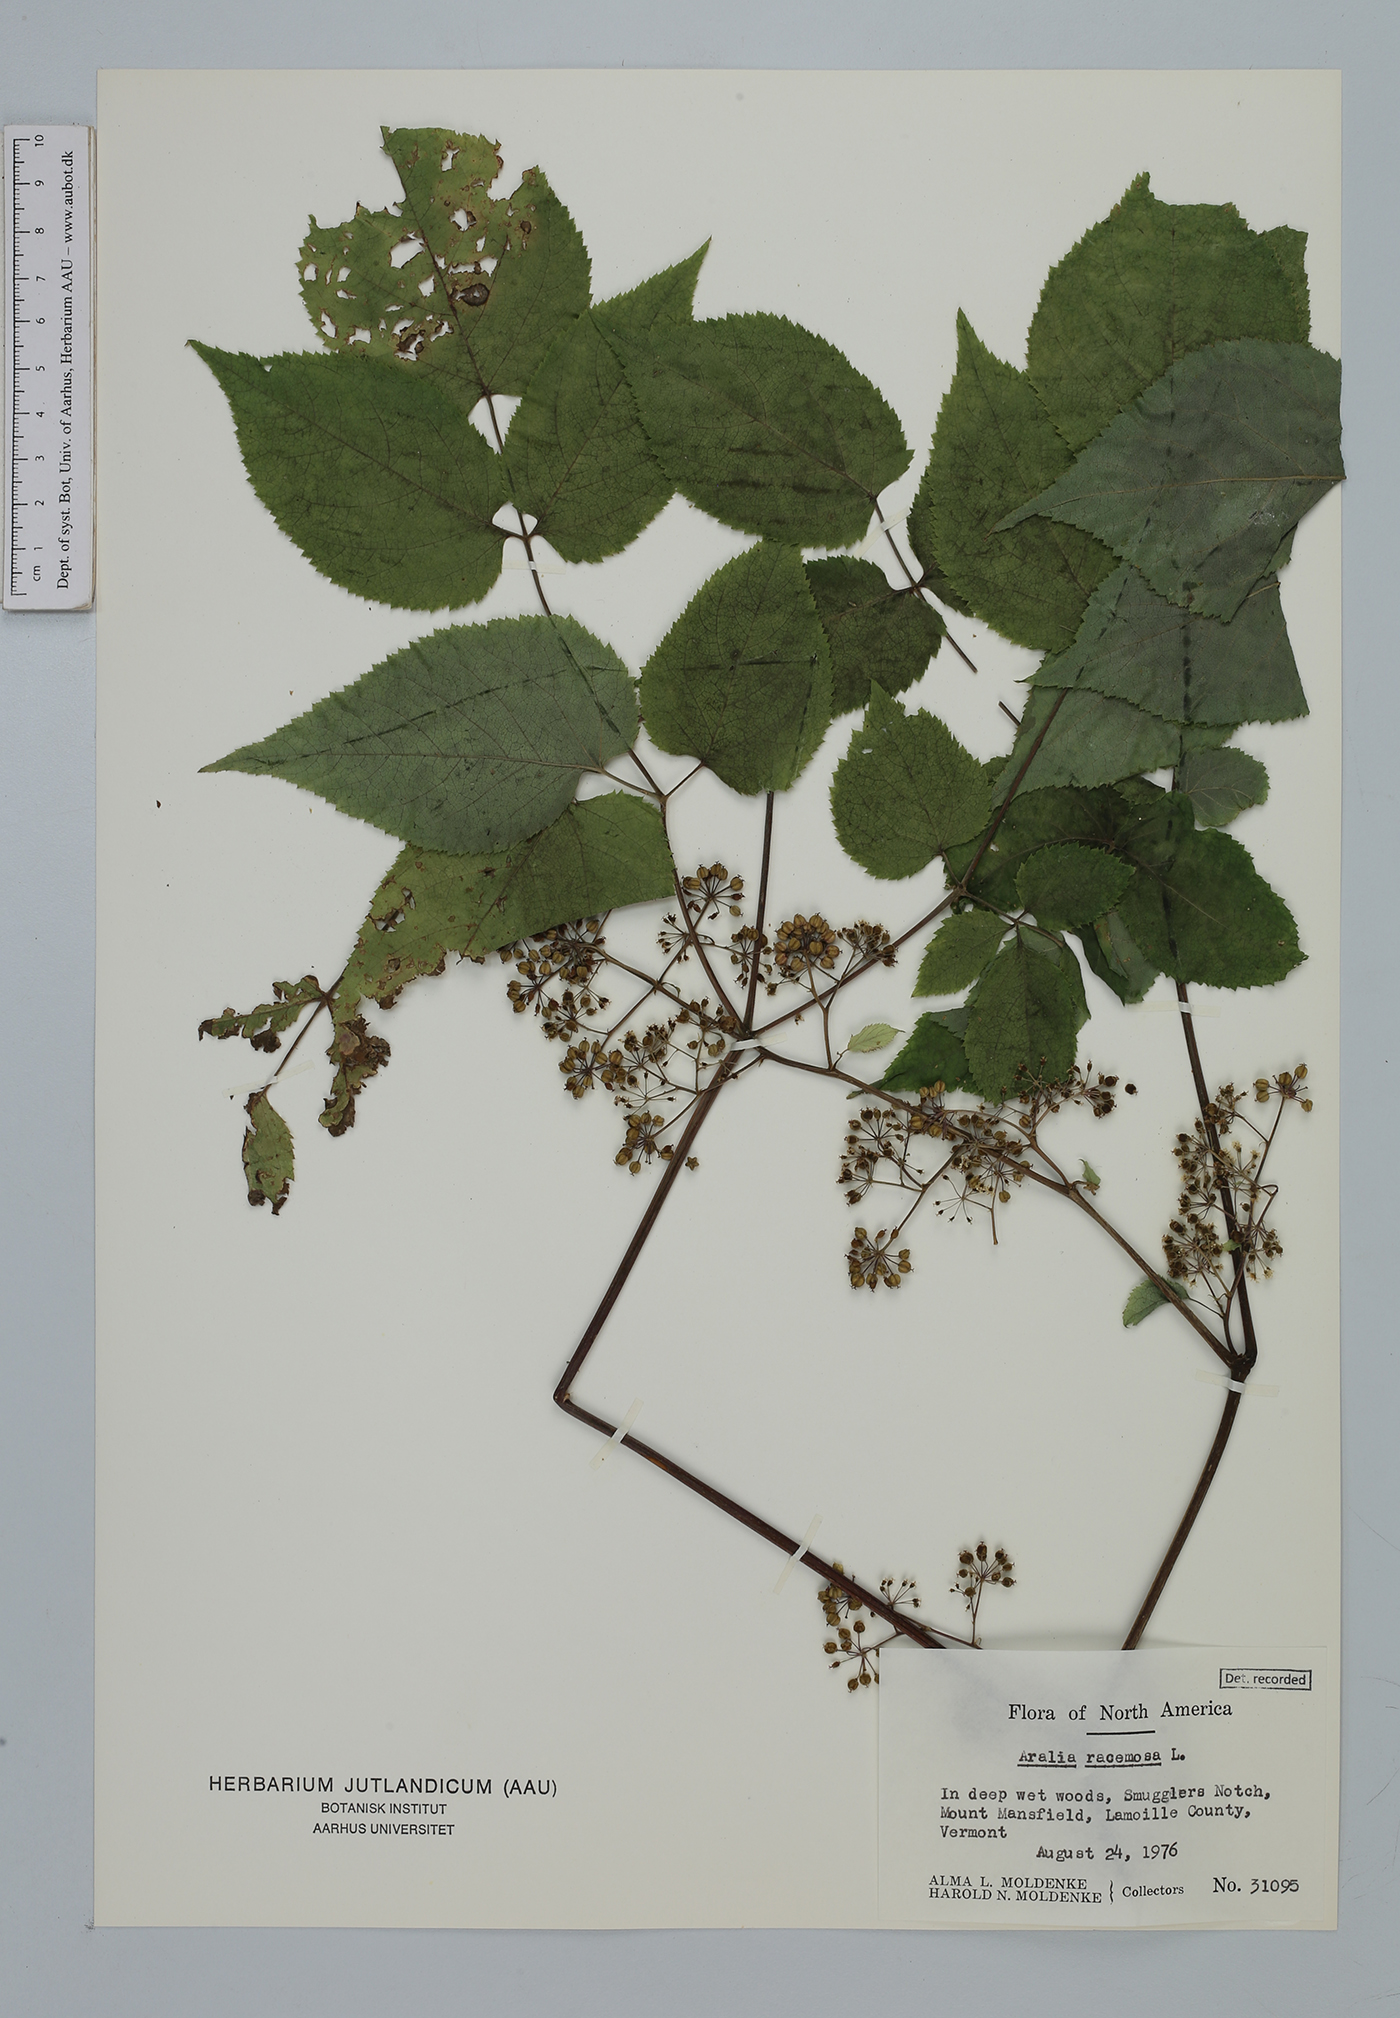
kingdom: Plantae
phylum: Tracheophyta
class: Magnoliopsida
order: Apiales
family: Araliaceae
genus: Aralia
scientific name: Aralia racemosa
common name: American-spikenard
